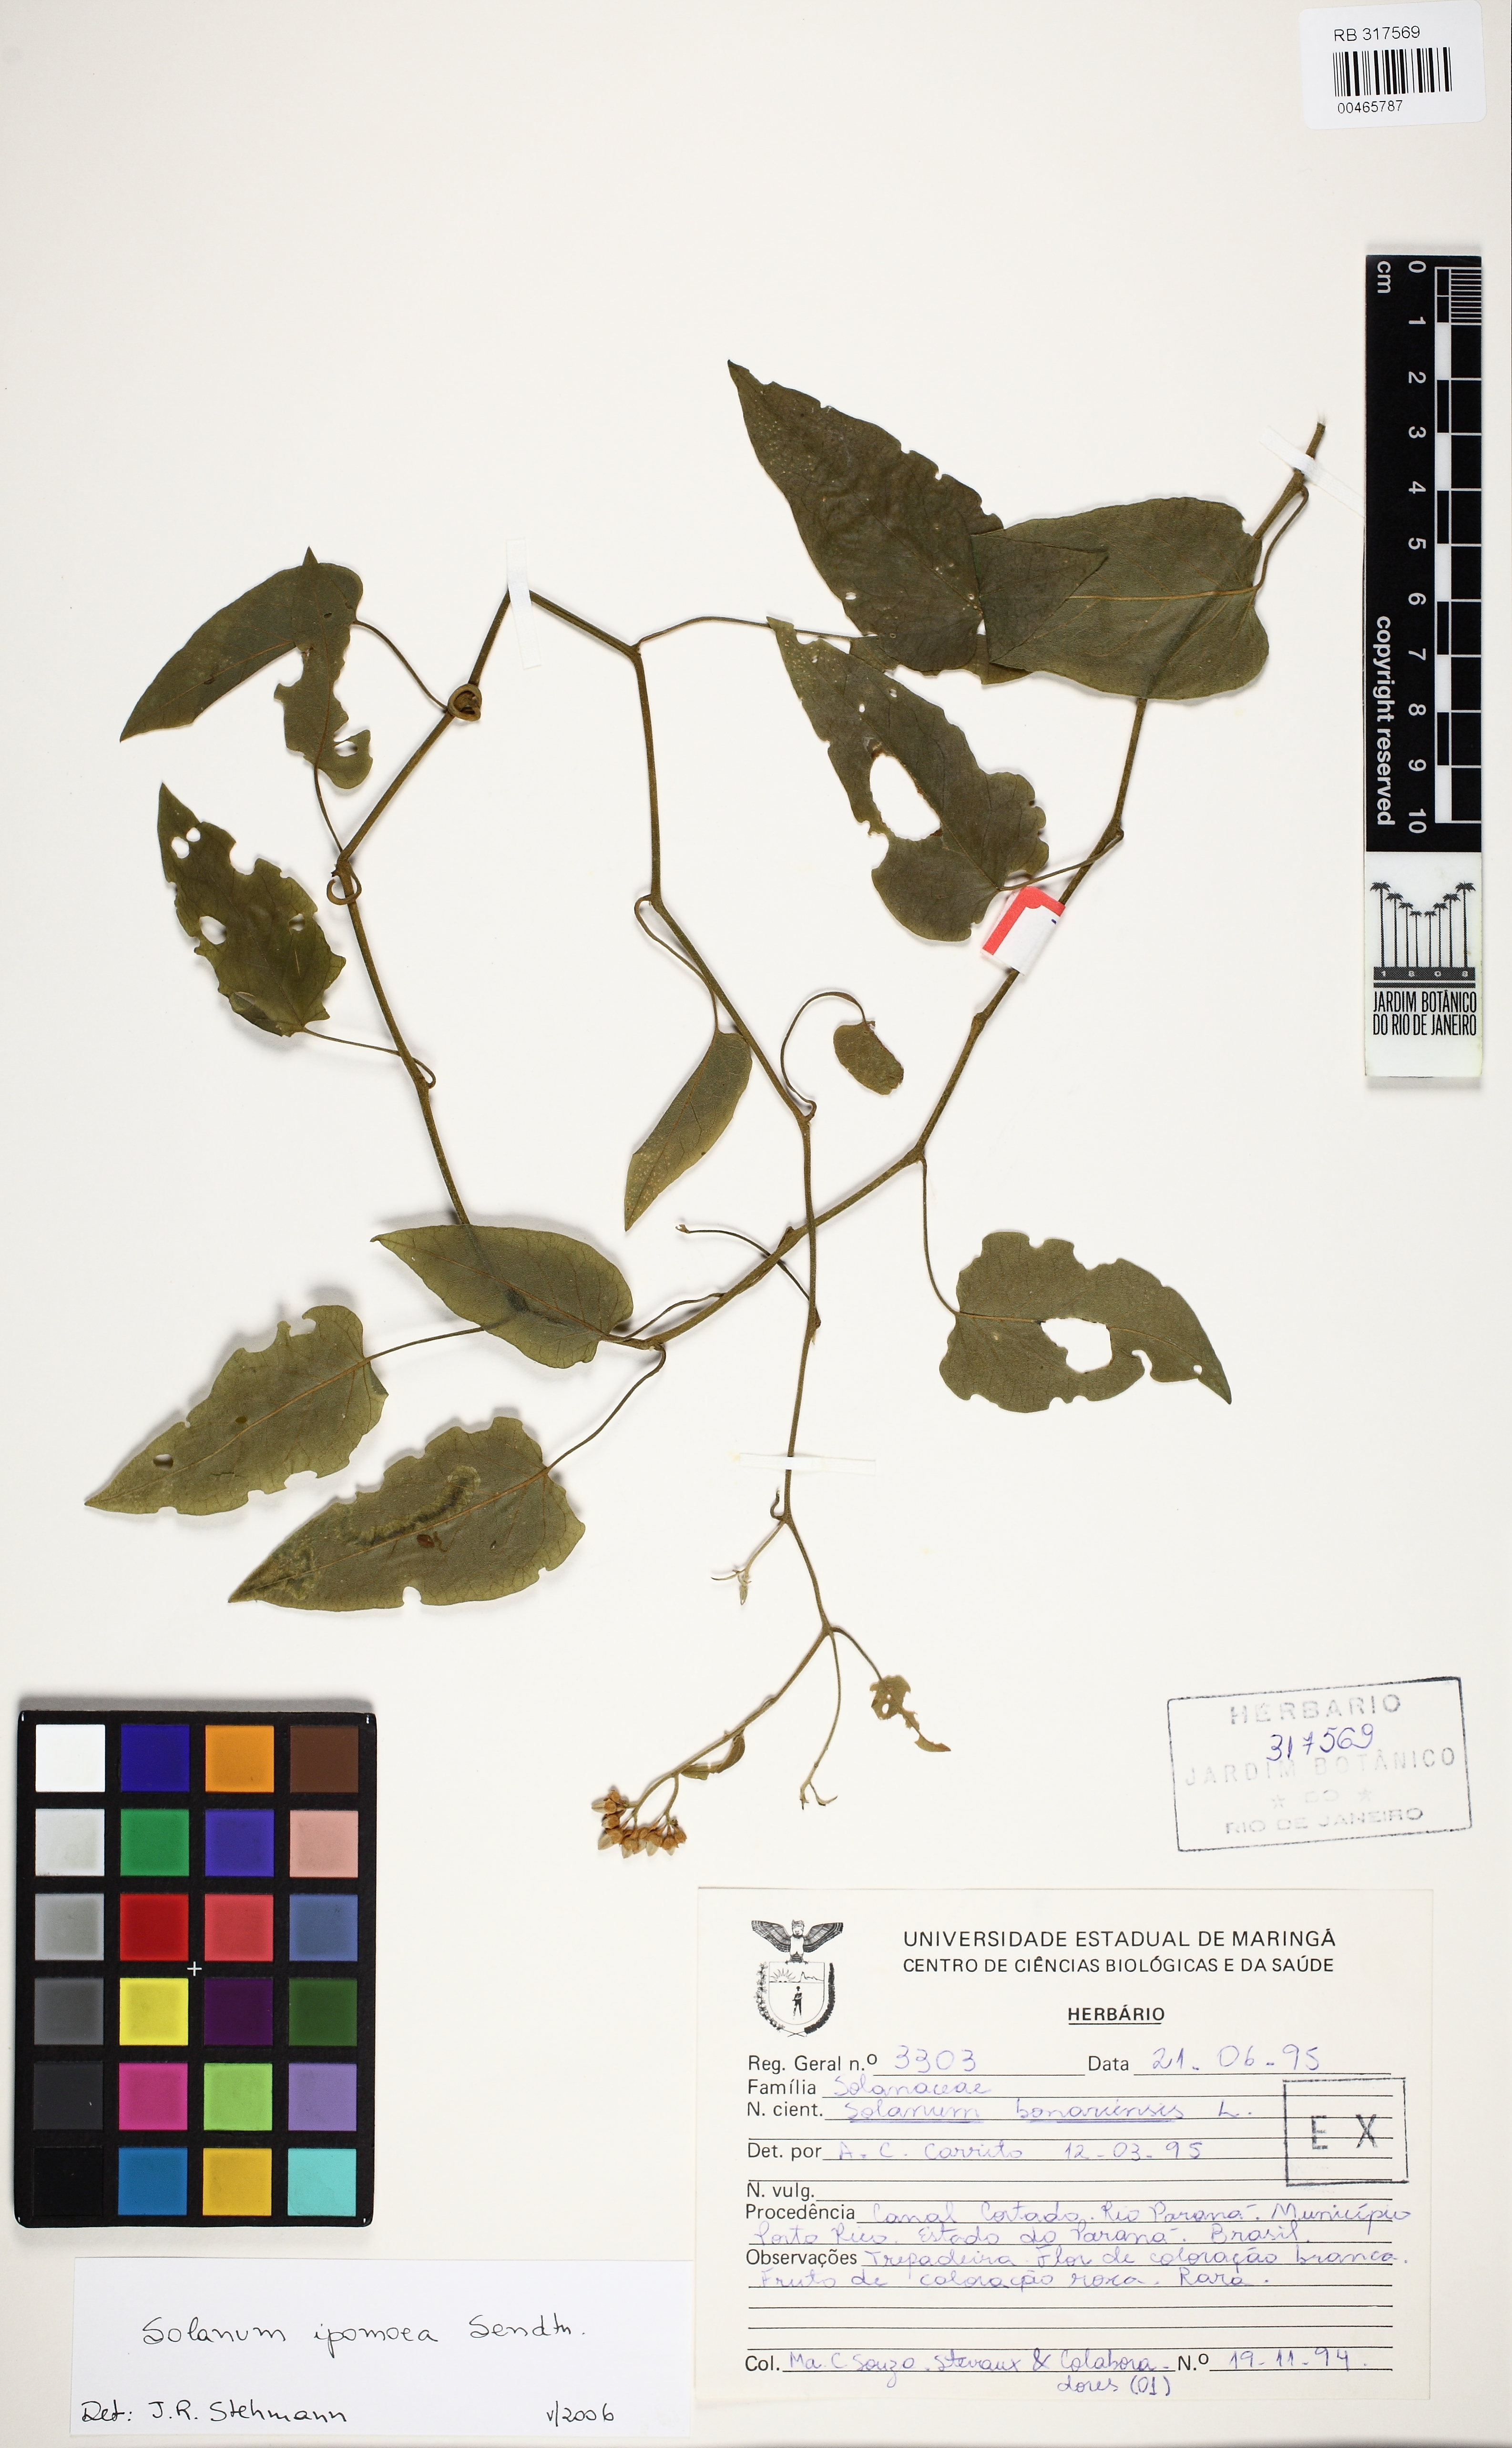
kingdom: Plantae
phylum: Tracheophyta
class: Magnoliopsida
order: Solanales
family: Solanaceae
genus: Solanum
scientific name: Solanum uncinellum
